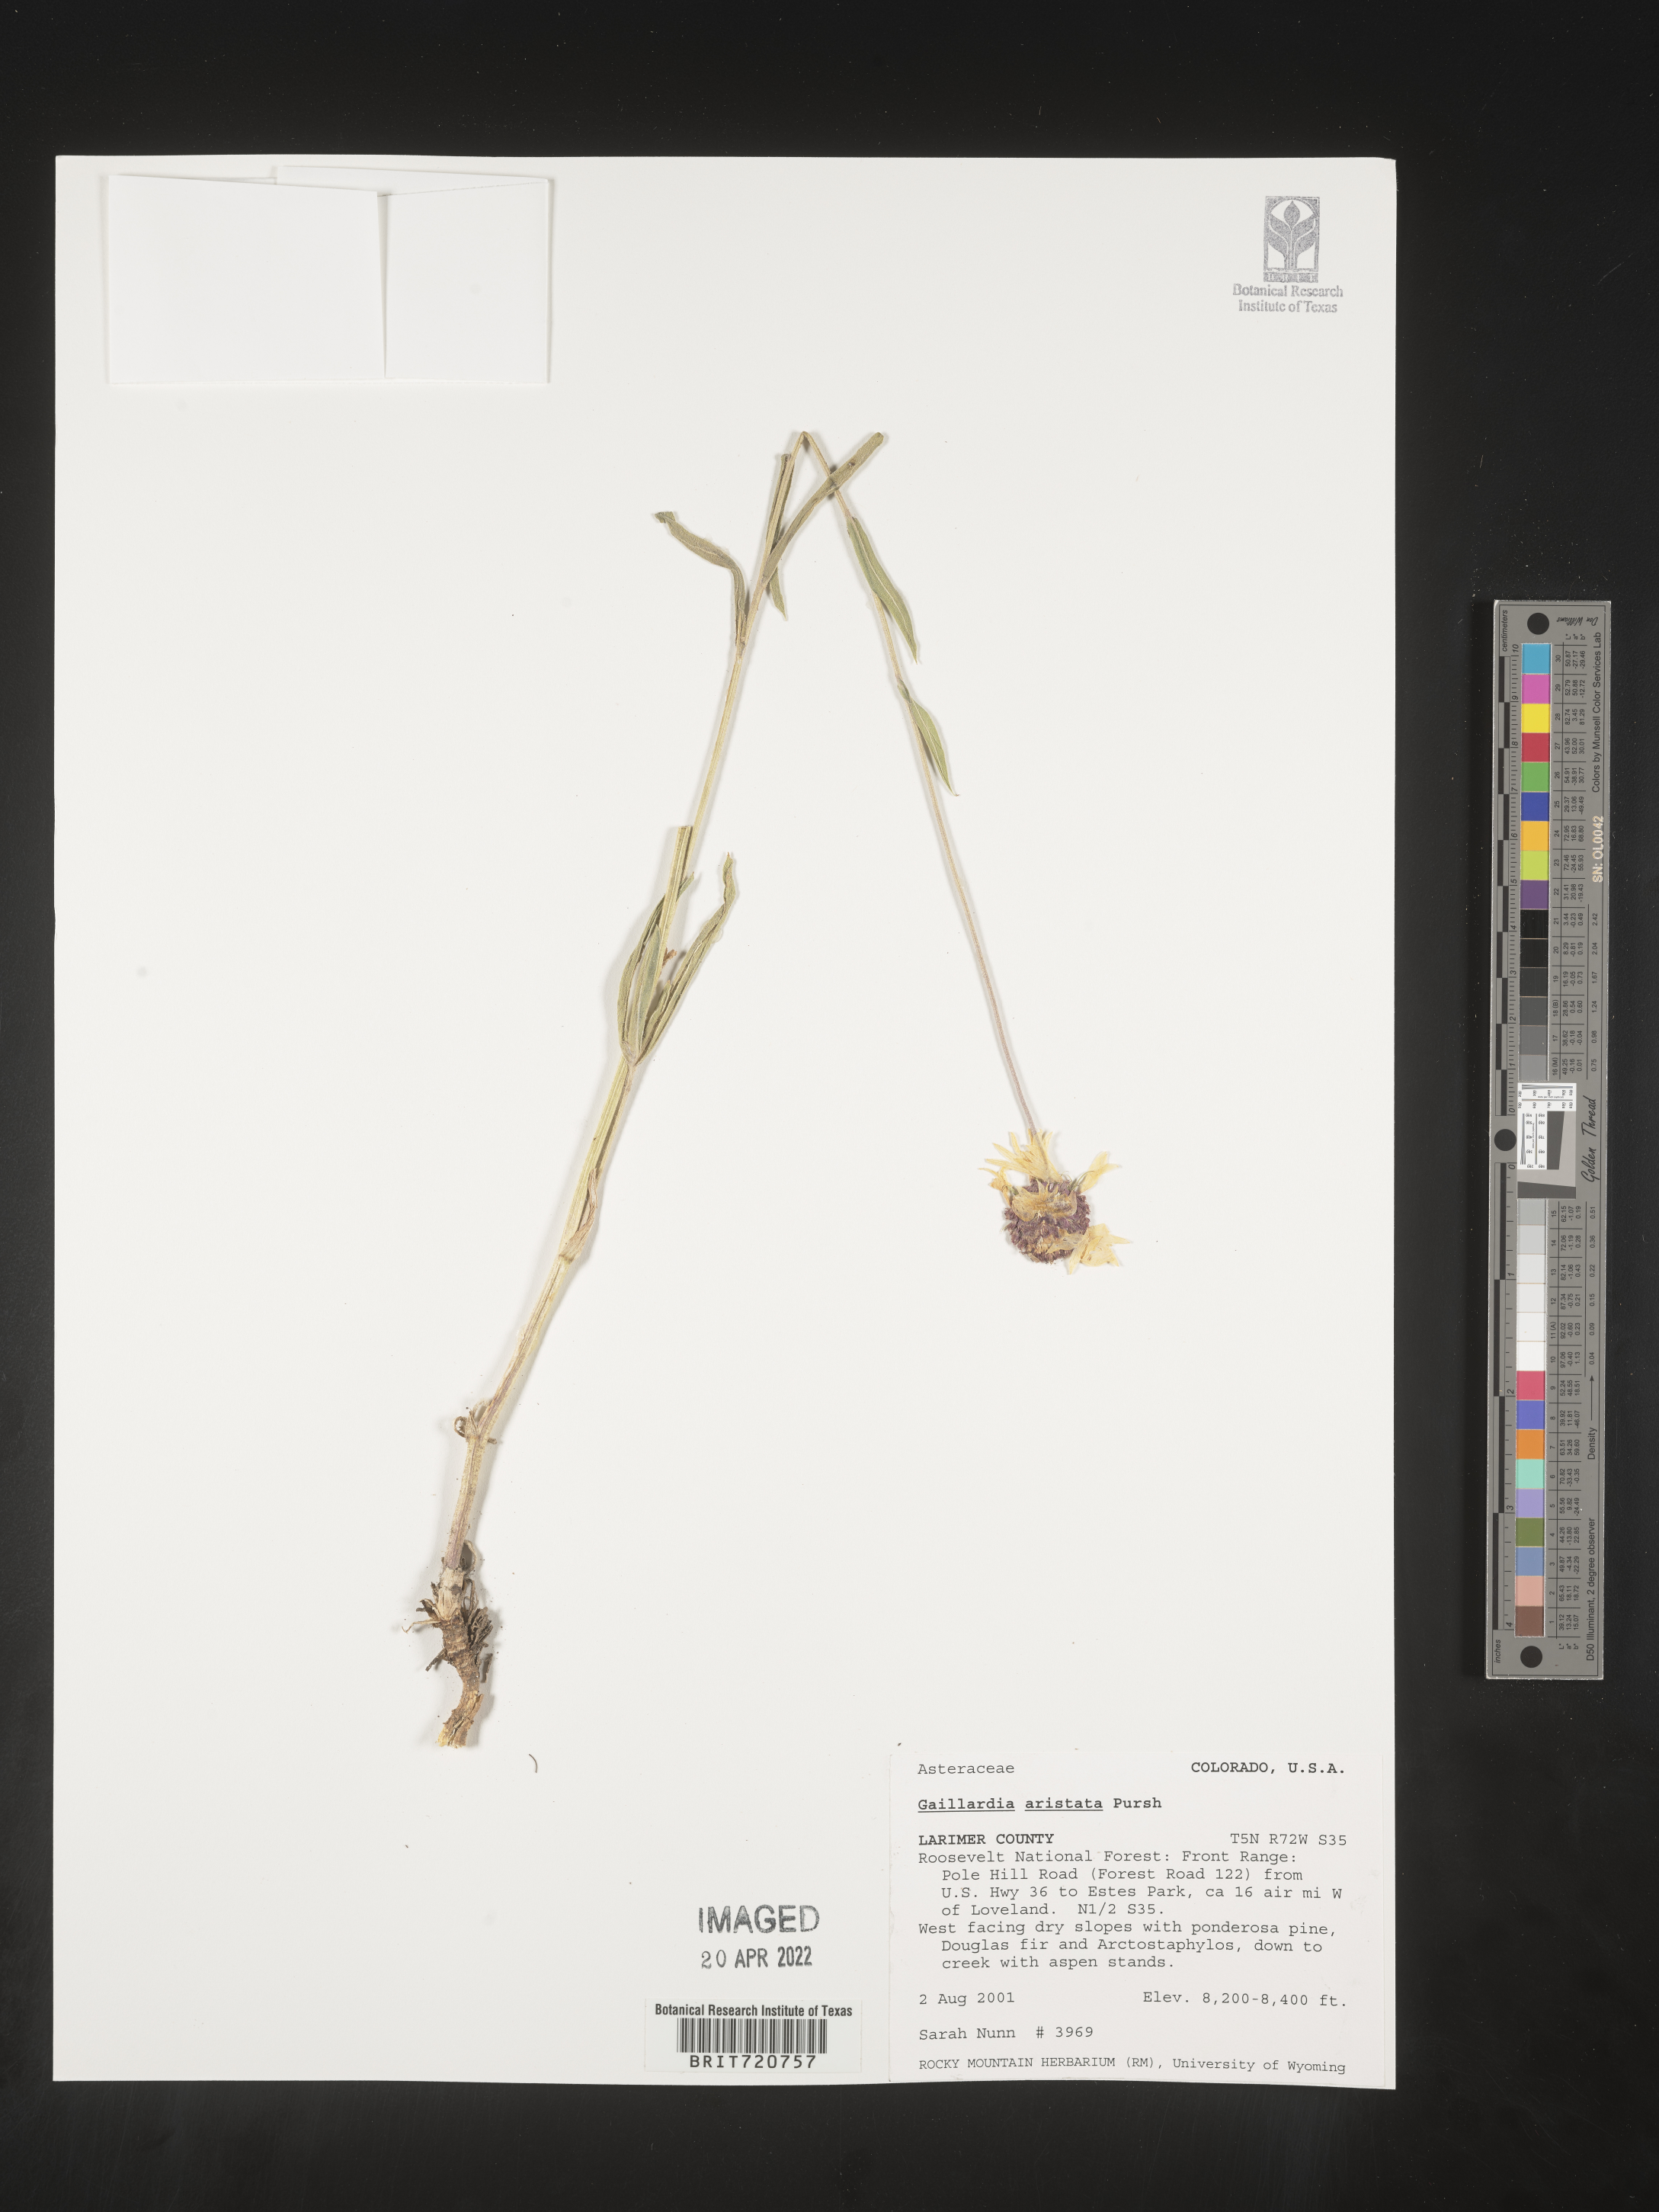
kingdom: Plantae
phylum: Tracheophyta
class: Magnoliopsida
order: Asterales
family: Asteraceae
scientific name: Asteraceae
